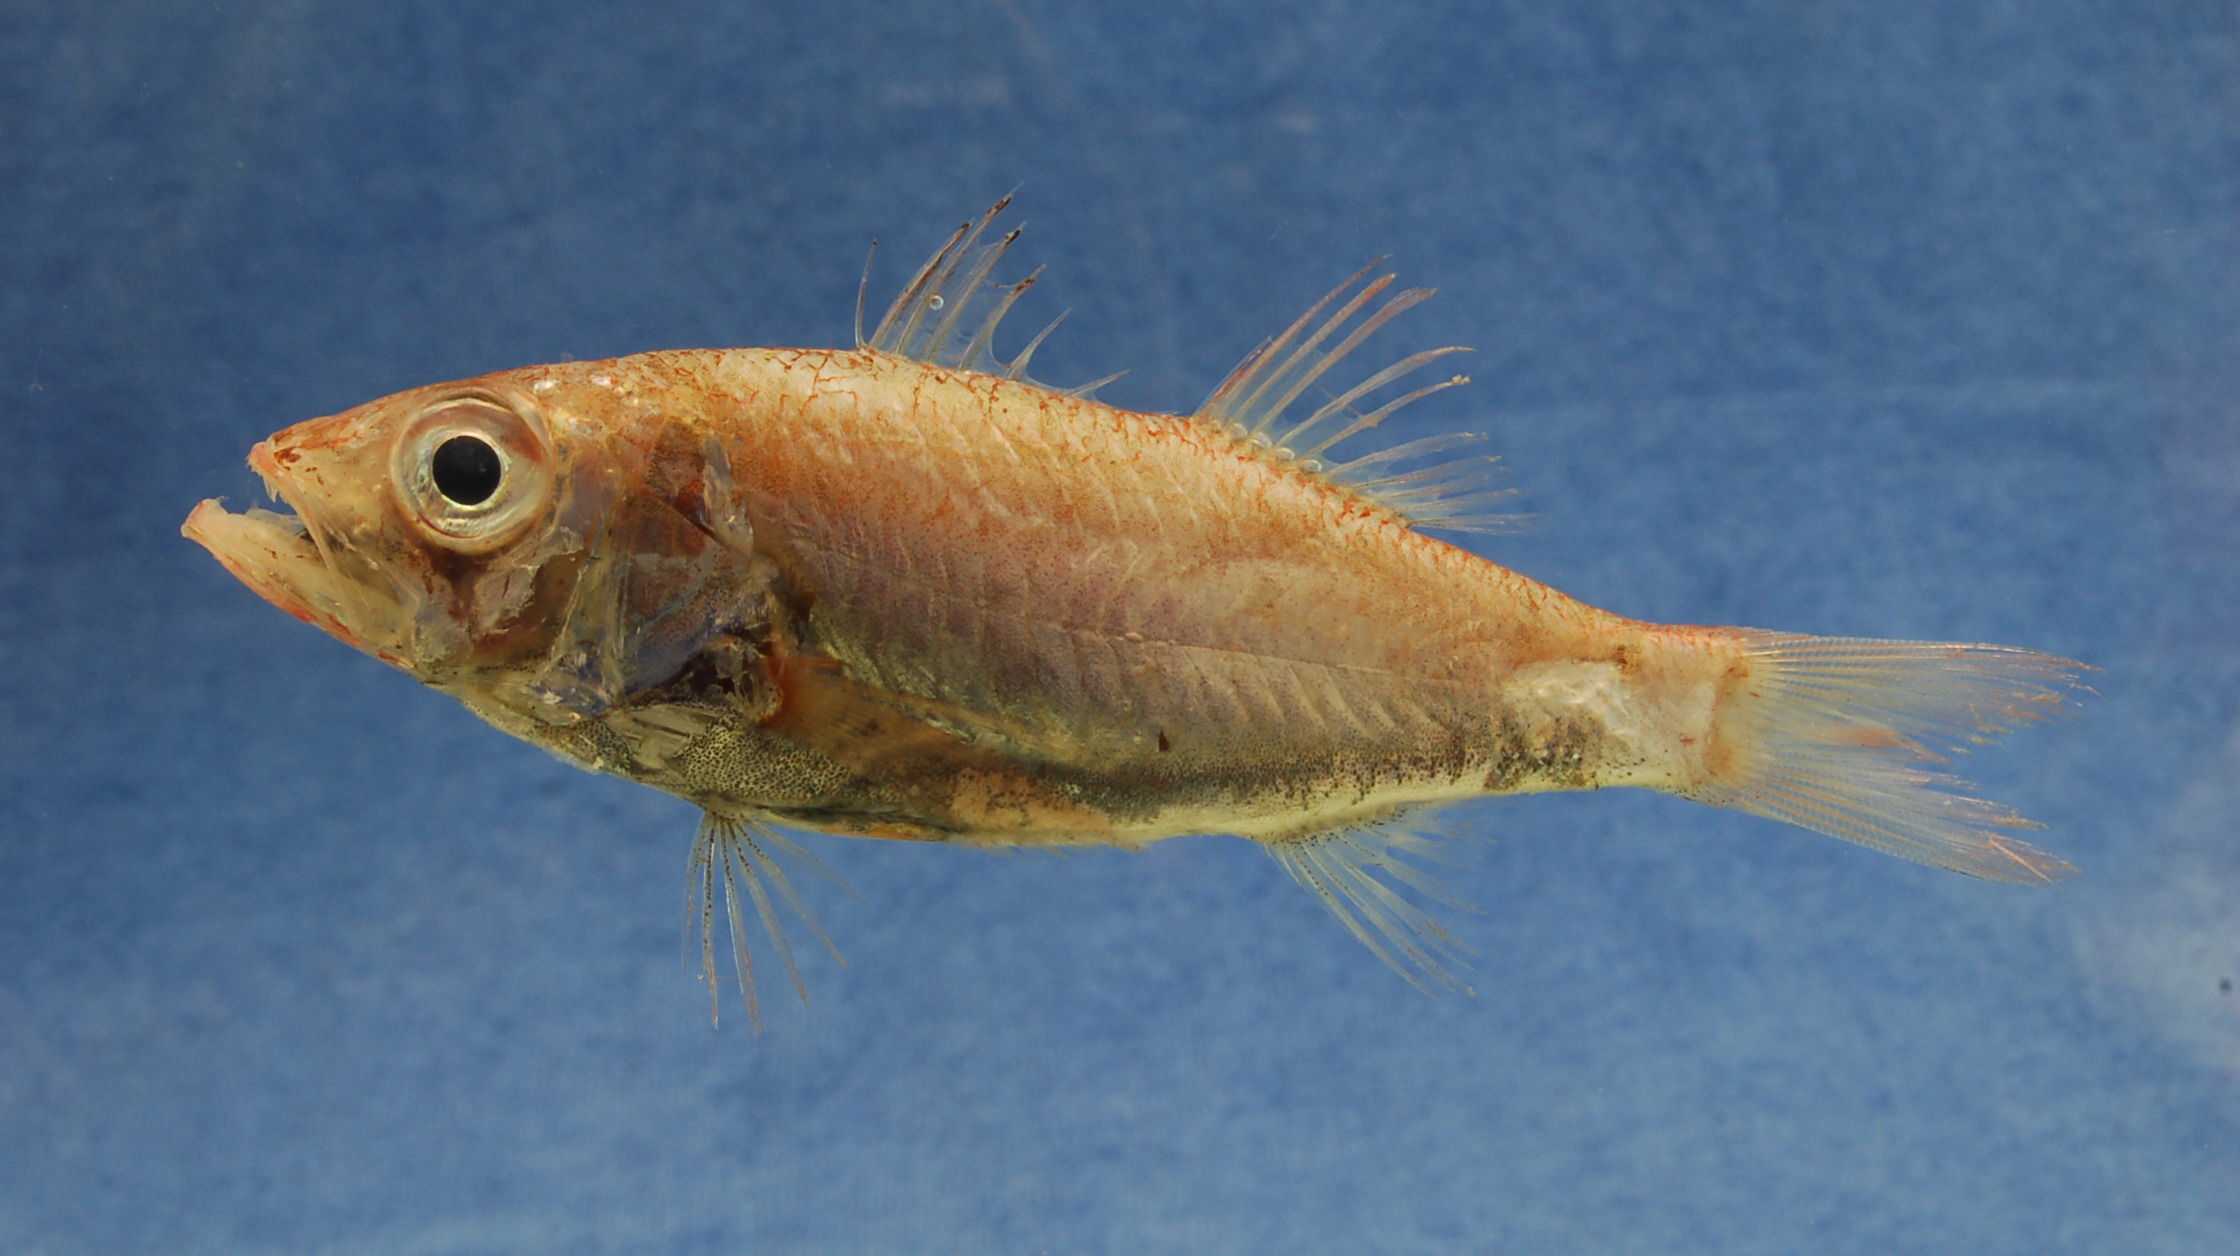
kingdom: Animalia
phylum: Chordata
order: Perciformes
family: Acropomatidae
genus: Acropoma
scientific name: Acropoma japonicum
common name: Glow-belly
